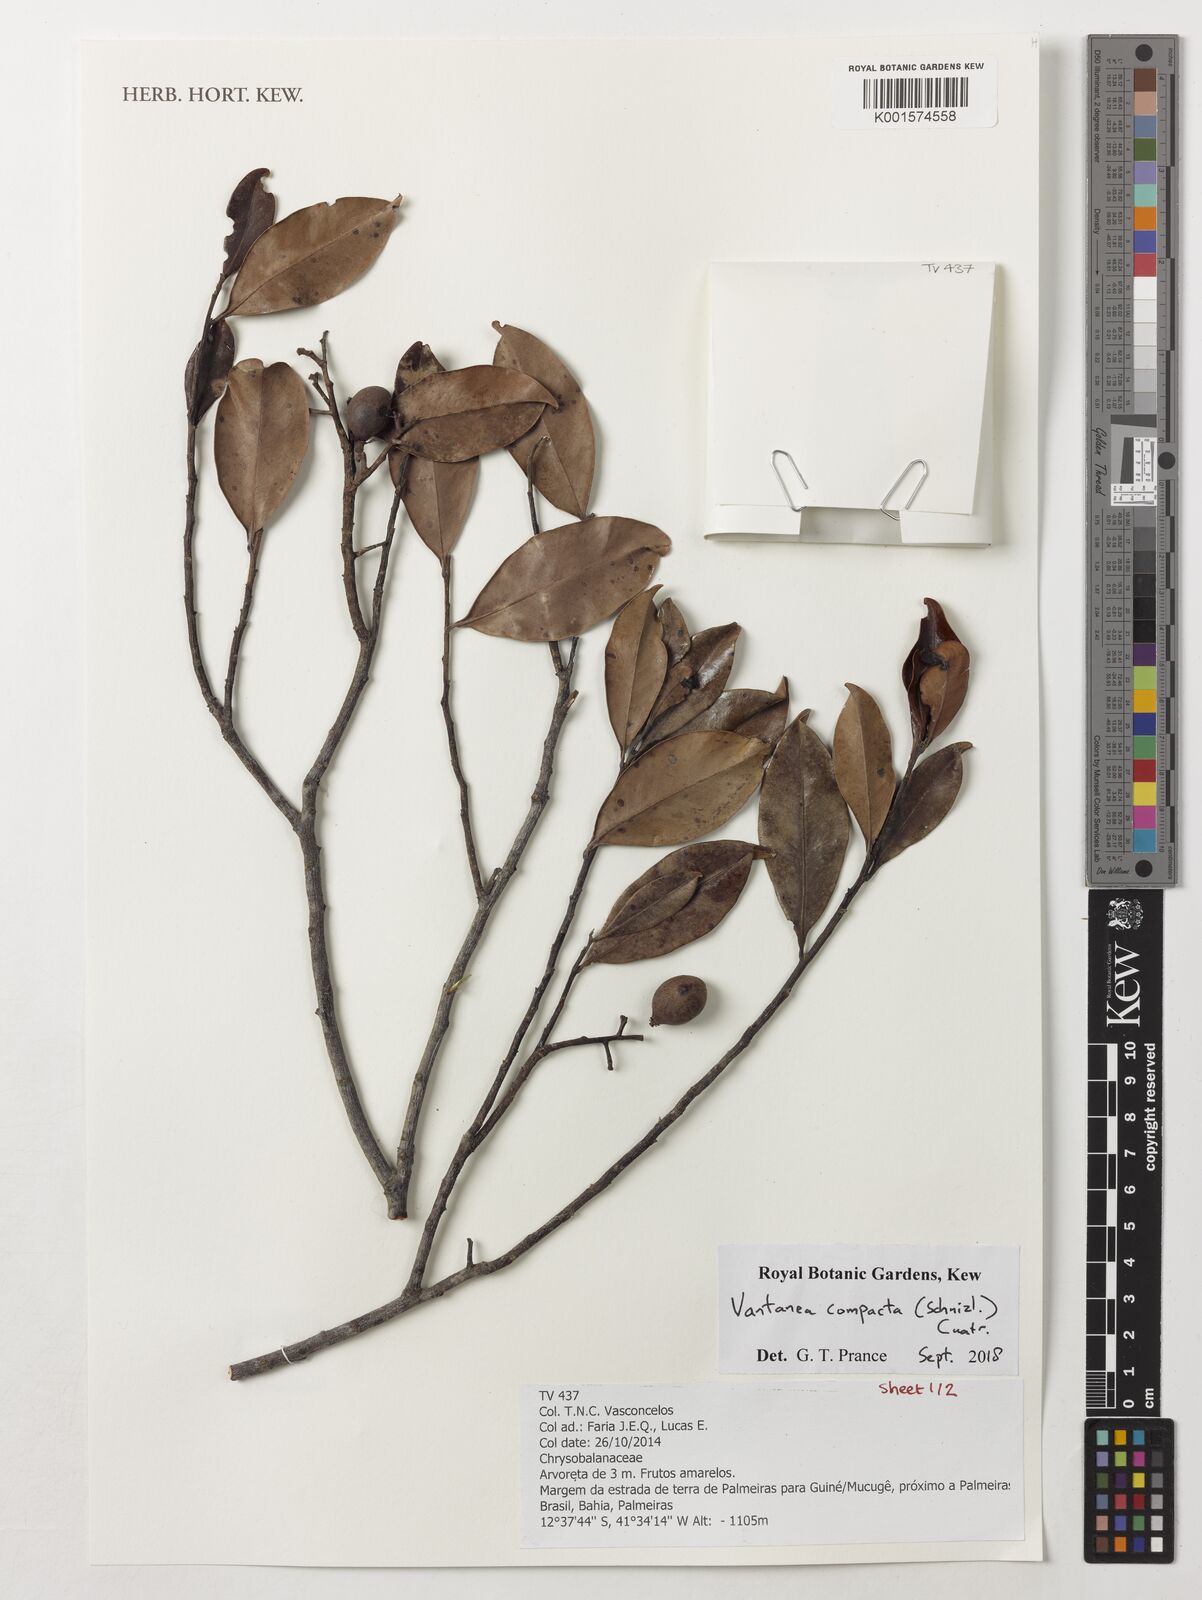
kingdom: Plantae
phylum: Tracheophyta
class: Magnoliopsida
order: Malpighiales
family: Humiriaceae
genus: Vantanea
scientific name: Vantanea compacta
